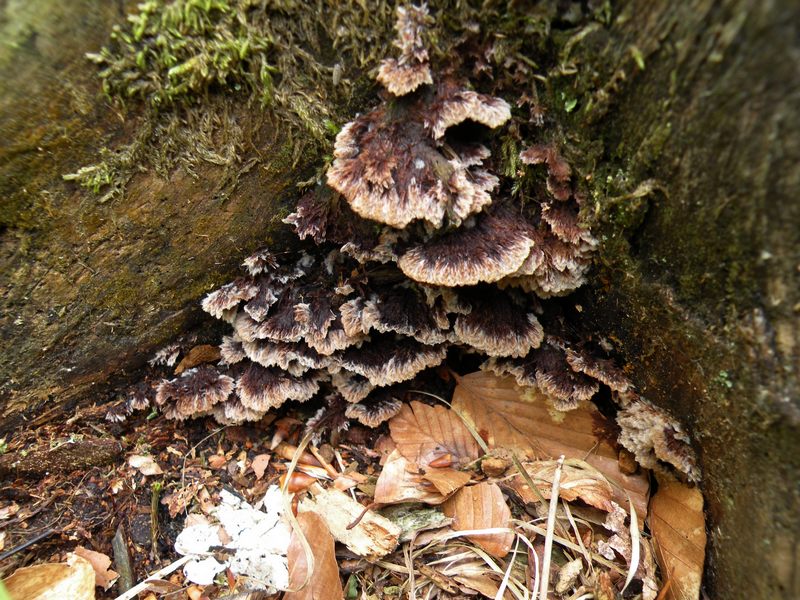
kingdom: Fungi
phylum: Basidiomycota
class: Agaricomycetes
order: Thelephorales
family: Thelephoraceae
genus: Thelephora
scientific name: Thelephora terrestris
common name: fliget frynsesvamp
